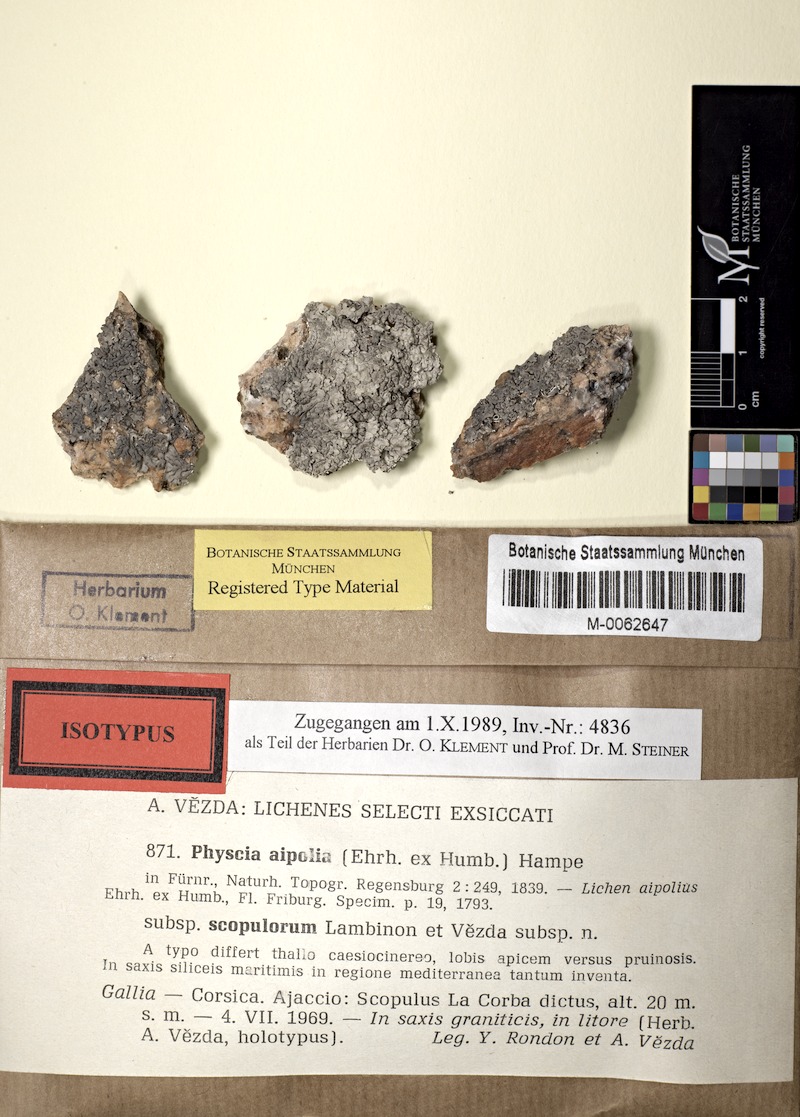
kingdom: Fungi
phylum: Ascomycota
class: Lecanoromycetes
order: Caliciales
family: Physciaceae
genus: Physcia
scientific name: Physcia mediterranea
